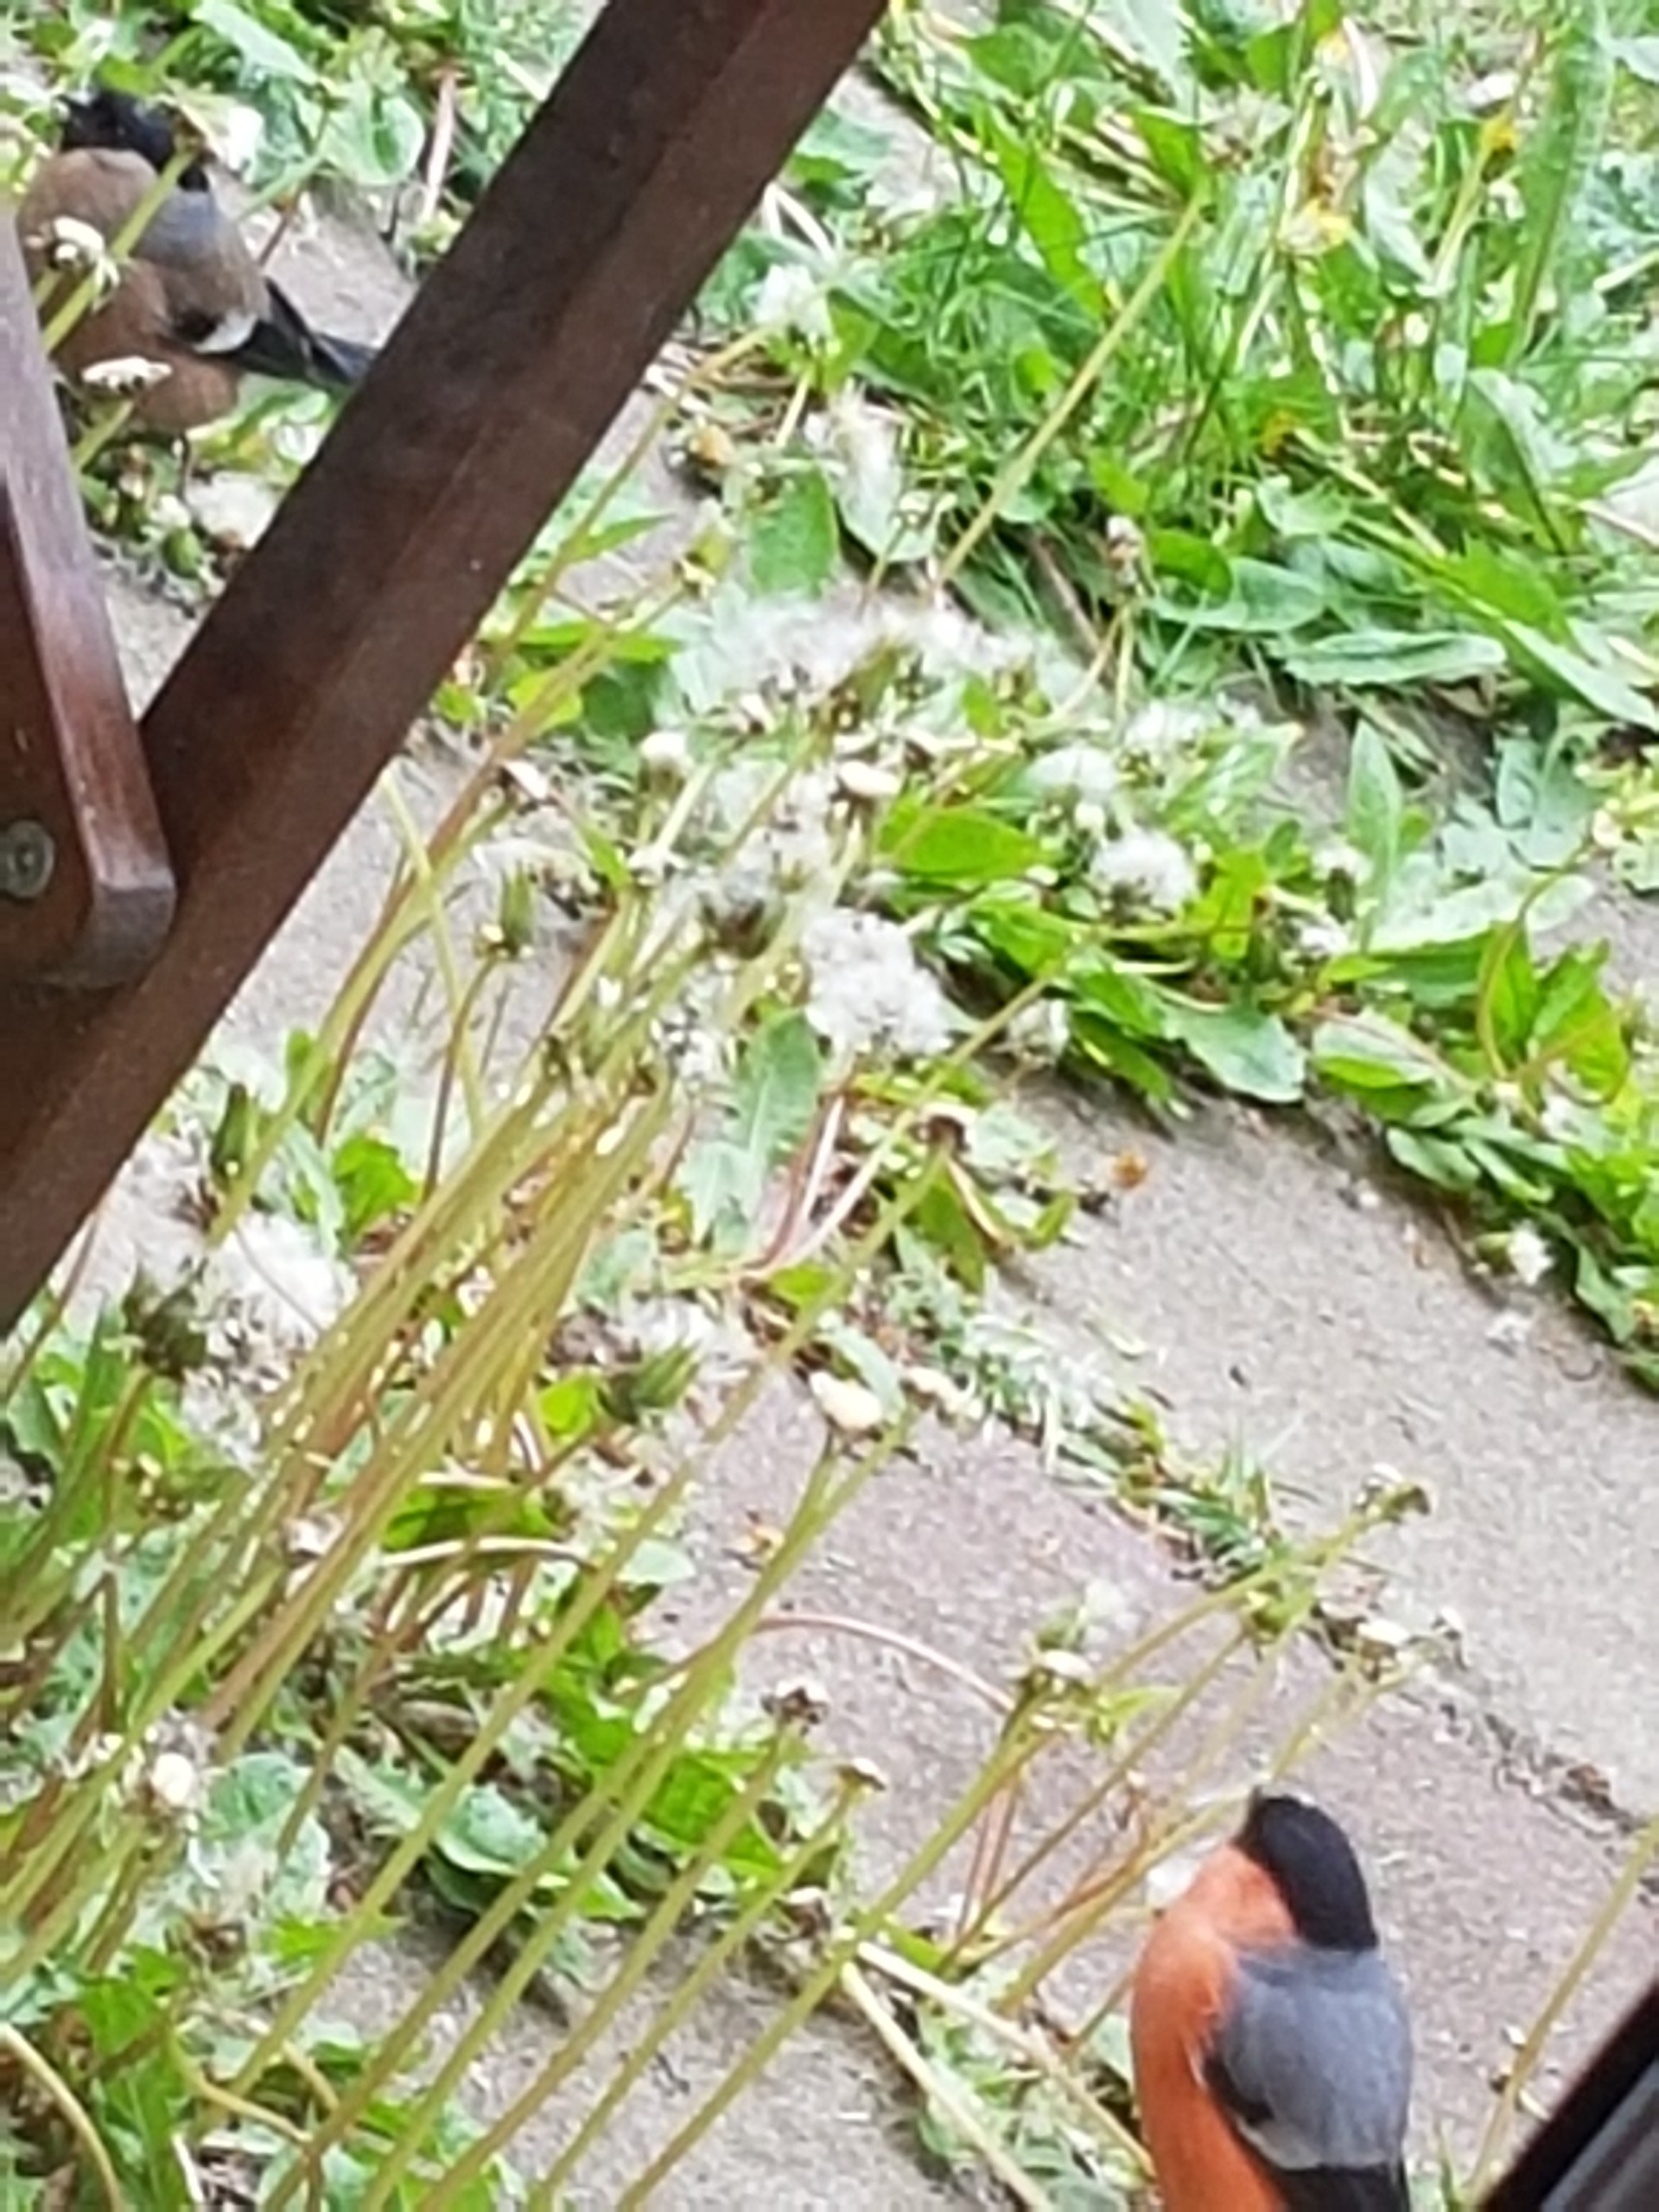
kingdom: Animalia
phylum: Chordata
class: Aves
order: Passeriformes
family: Fringillidae
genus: Pyrrhula
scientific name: Pyrrhula pyrrhula
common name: Dompap
